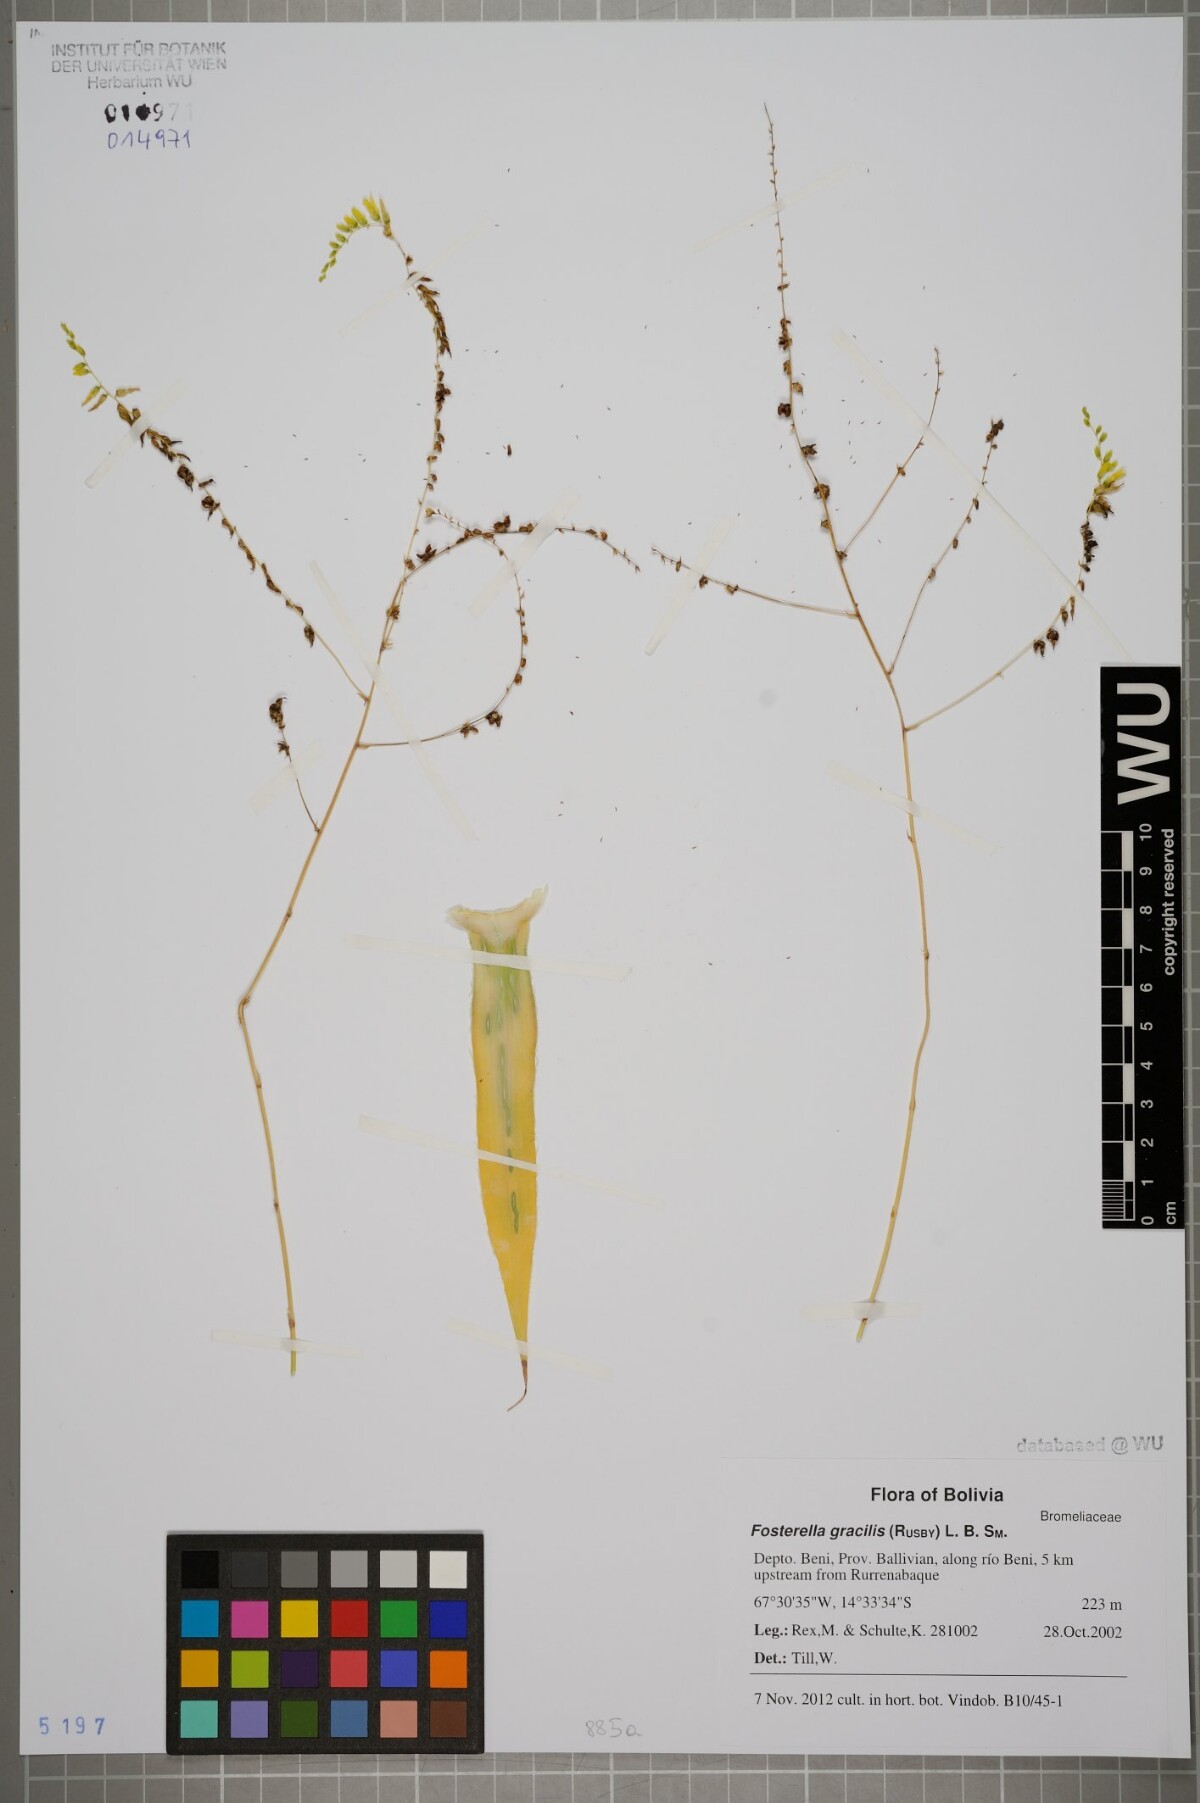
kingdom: Plantae
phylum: Tracheophyta
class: Liliopsida
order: Poales
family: Bromeliaceae
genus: Fosterella
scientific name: Fosterella gracilis
